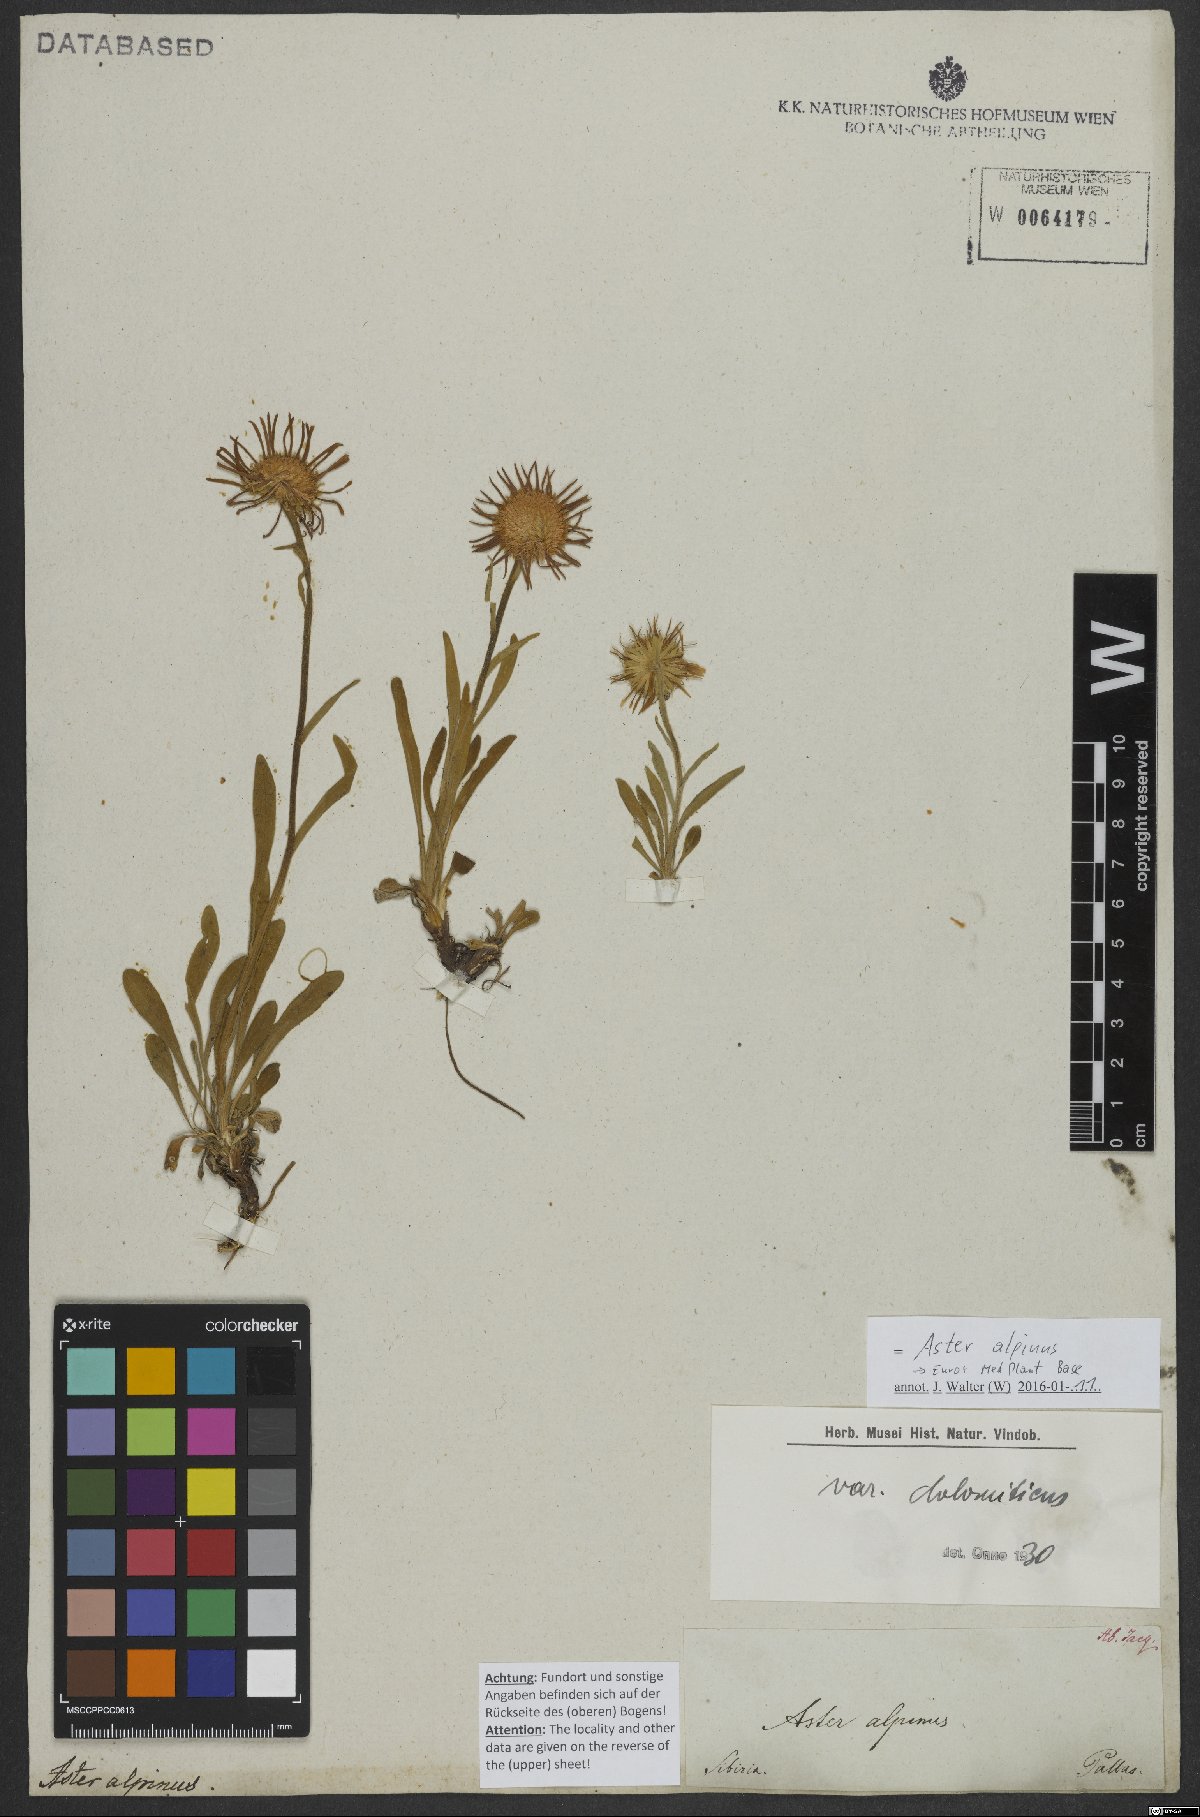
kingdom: Plantae
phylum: Tracheophyta
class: Magnoliopsida
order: Asterales
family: Asteraceae
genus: Aster
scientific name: Aster alpinus
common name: Alpine aster
